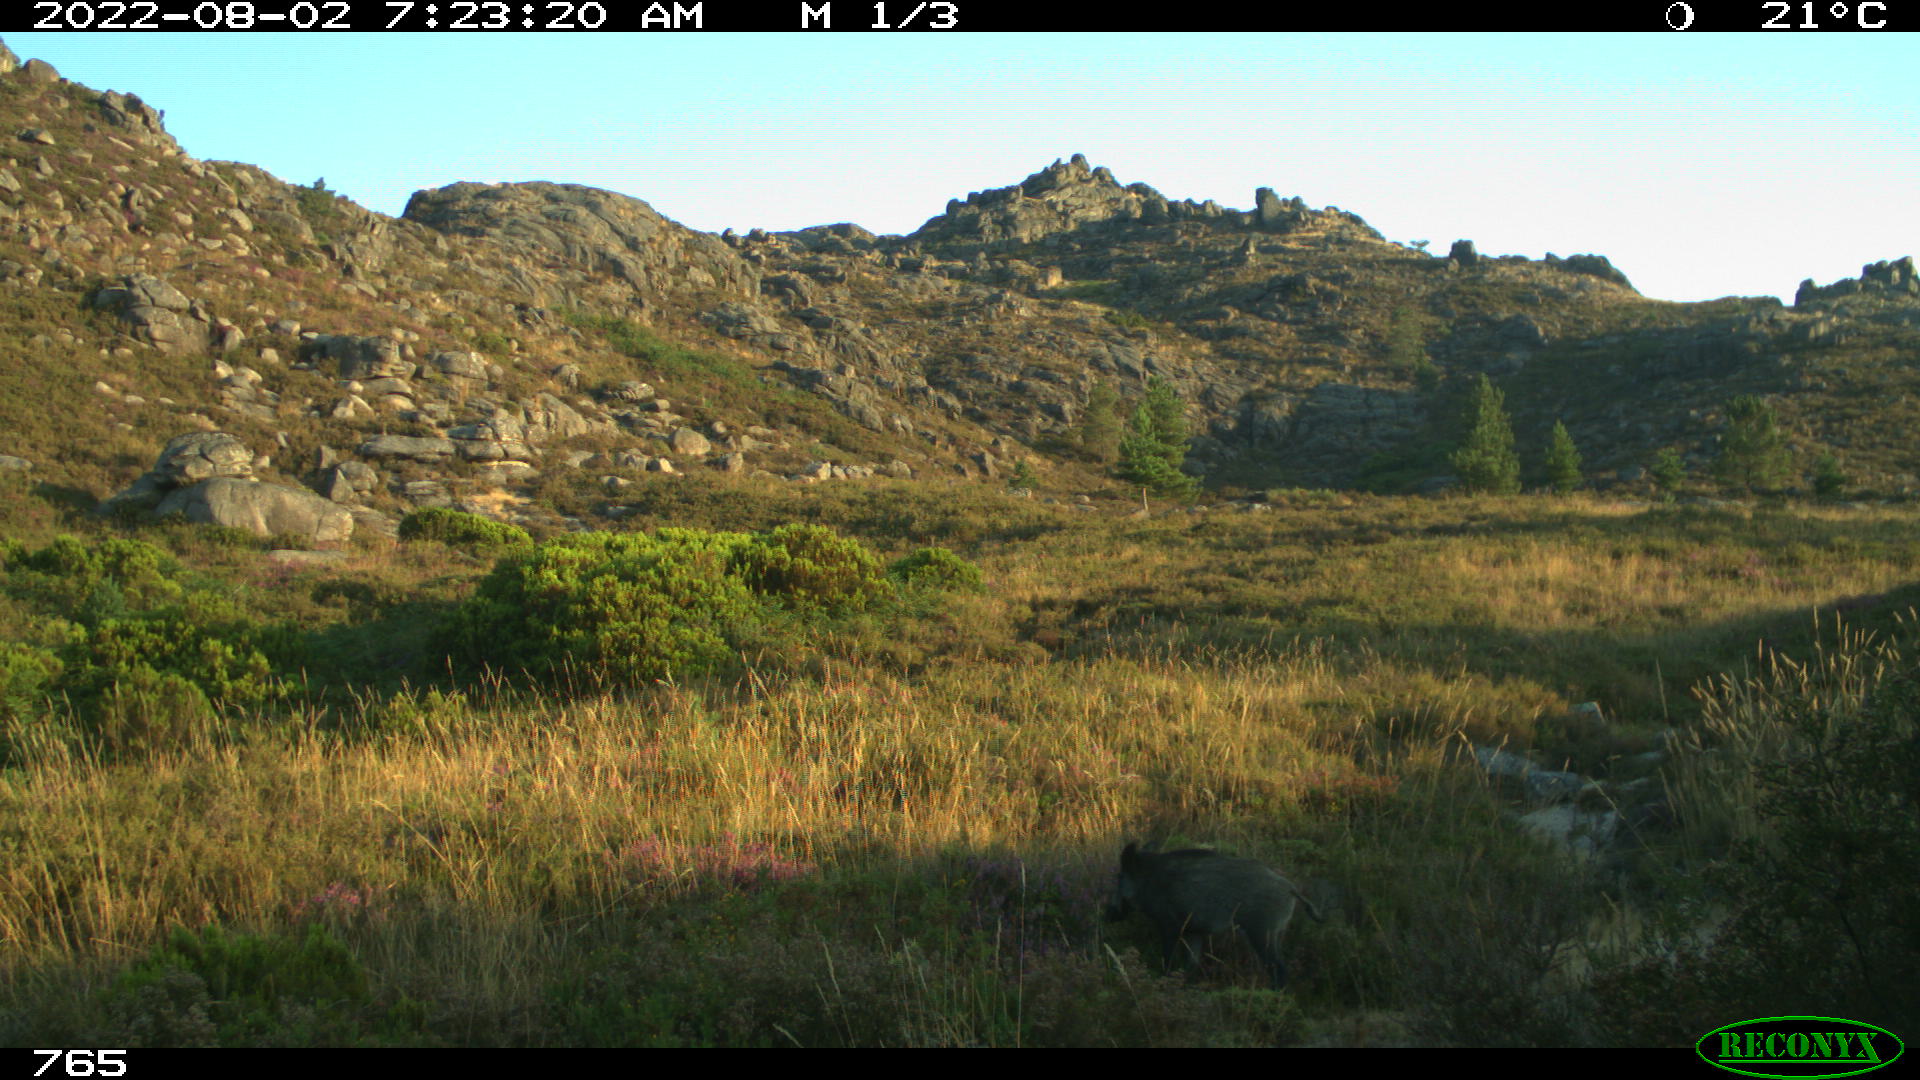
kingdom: Animalia
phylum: Chordata
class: Mammalia
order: Artiodactyla
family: Suidae
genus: Sus
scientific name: Sus scrofa
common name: Wild boar
